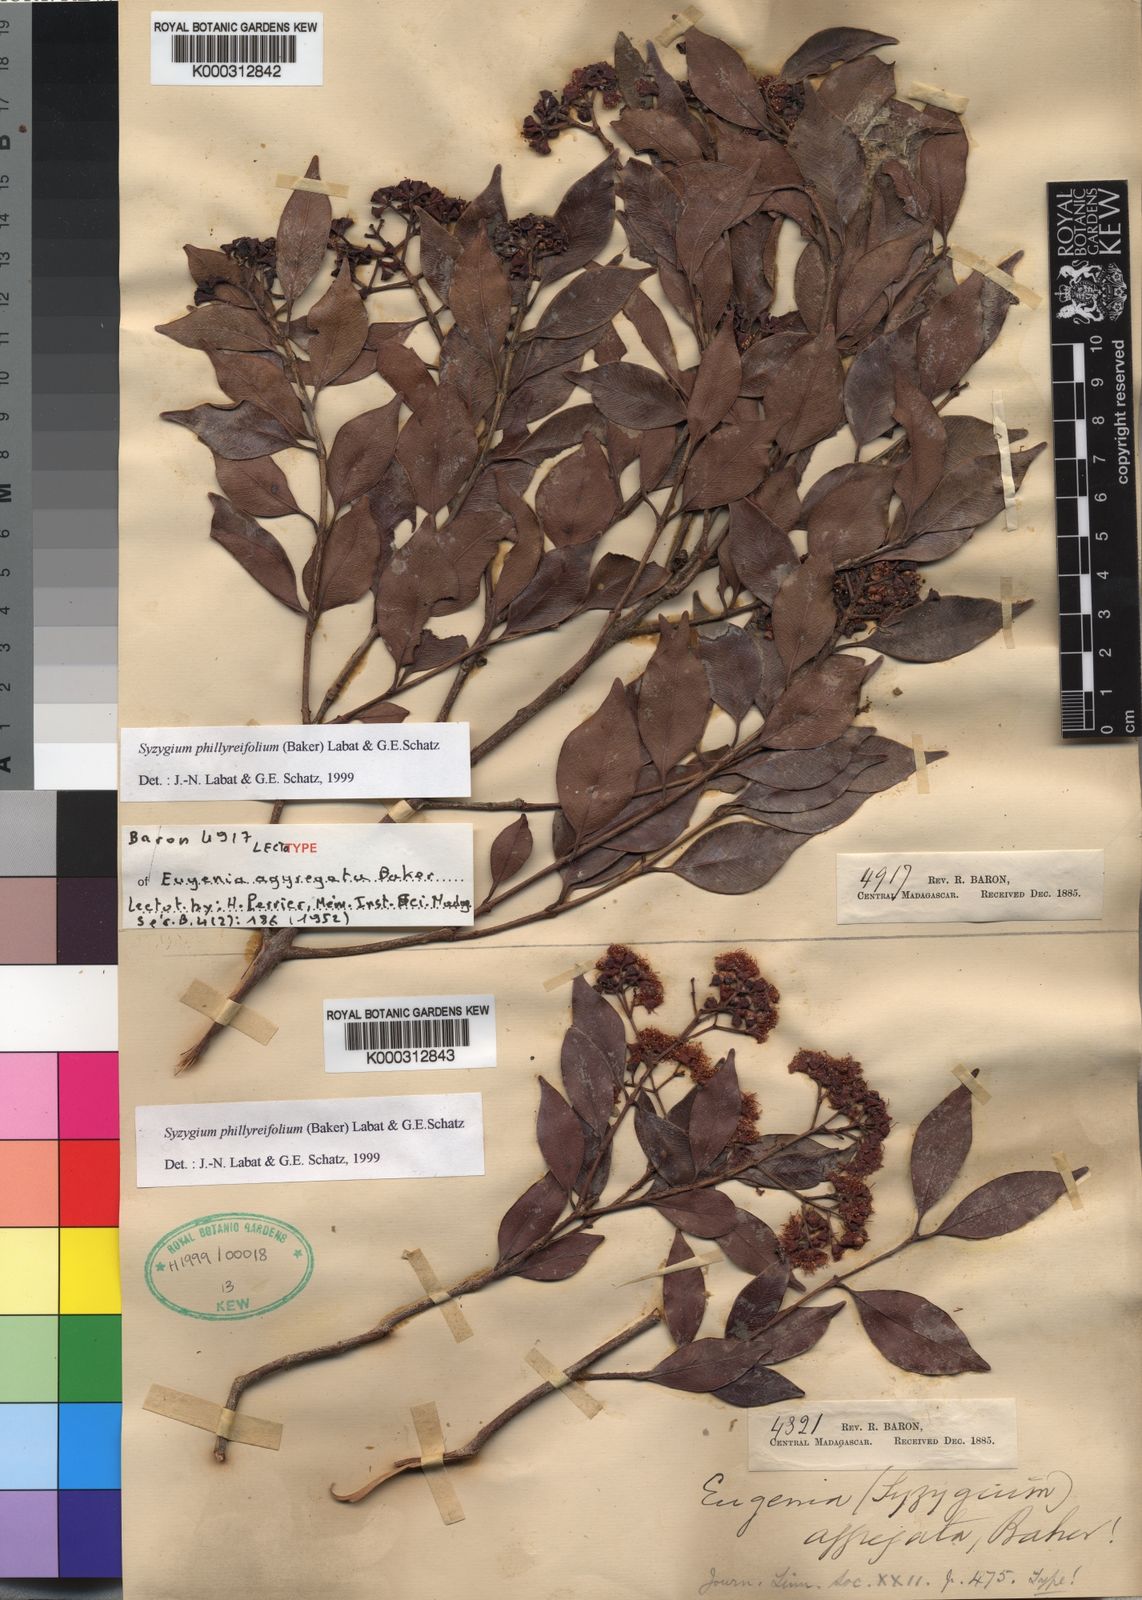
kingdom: Plantae
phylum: Tracheophyta
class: Magnoliopsida
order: Myrtales
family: Myrtaceae
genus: Syzygium
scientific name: Syzygium condensatum
